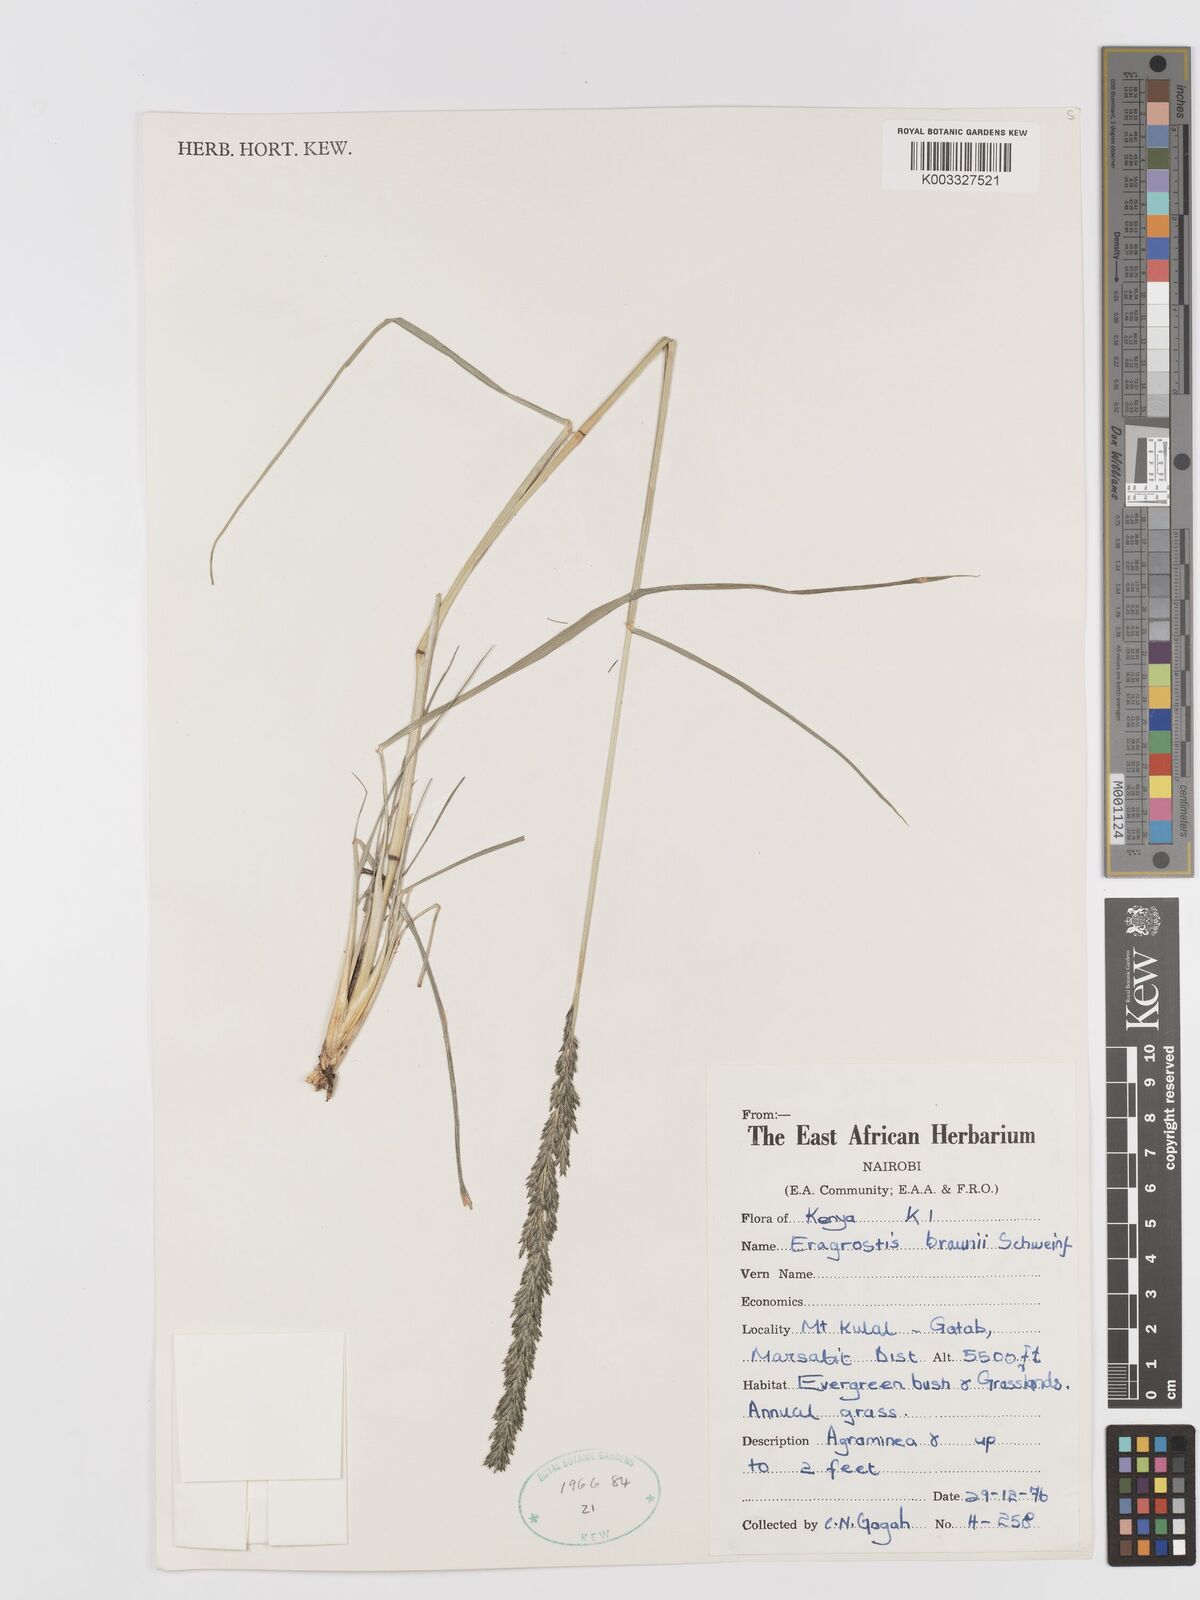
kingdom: Plantae
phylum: Tracheophyta
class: Liliopsida
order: Poales
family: Poaceae
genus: Eragrostis
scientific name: Eragrostis braunii
